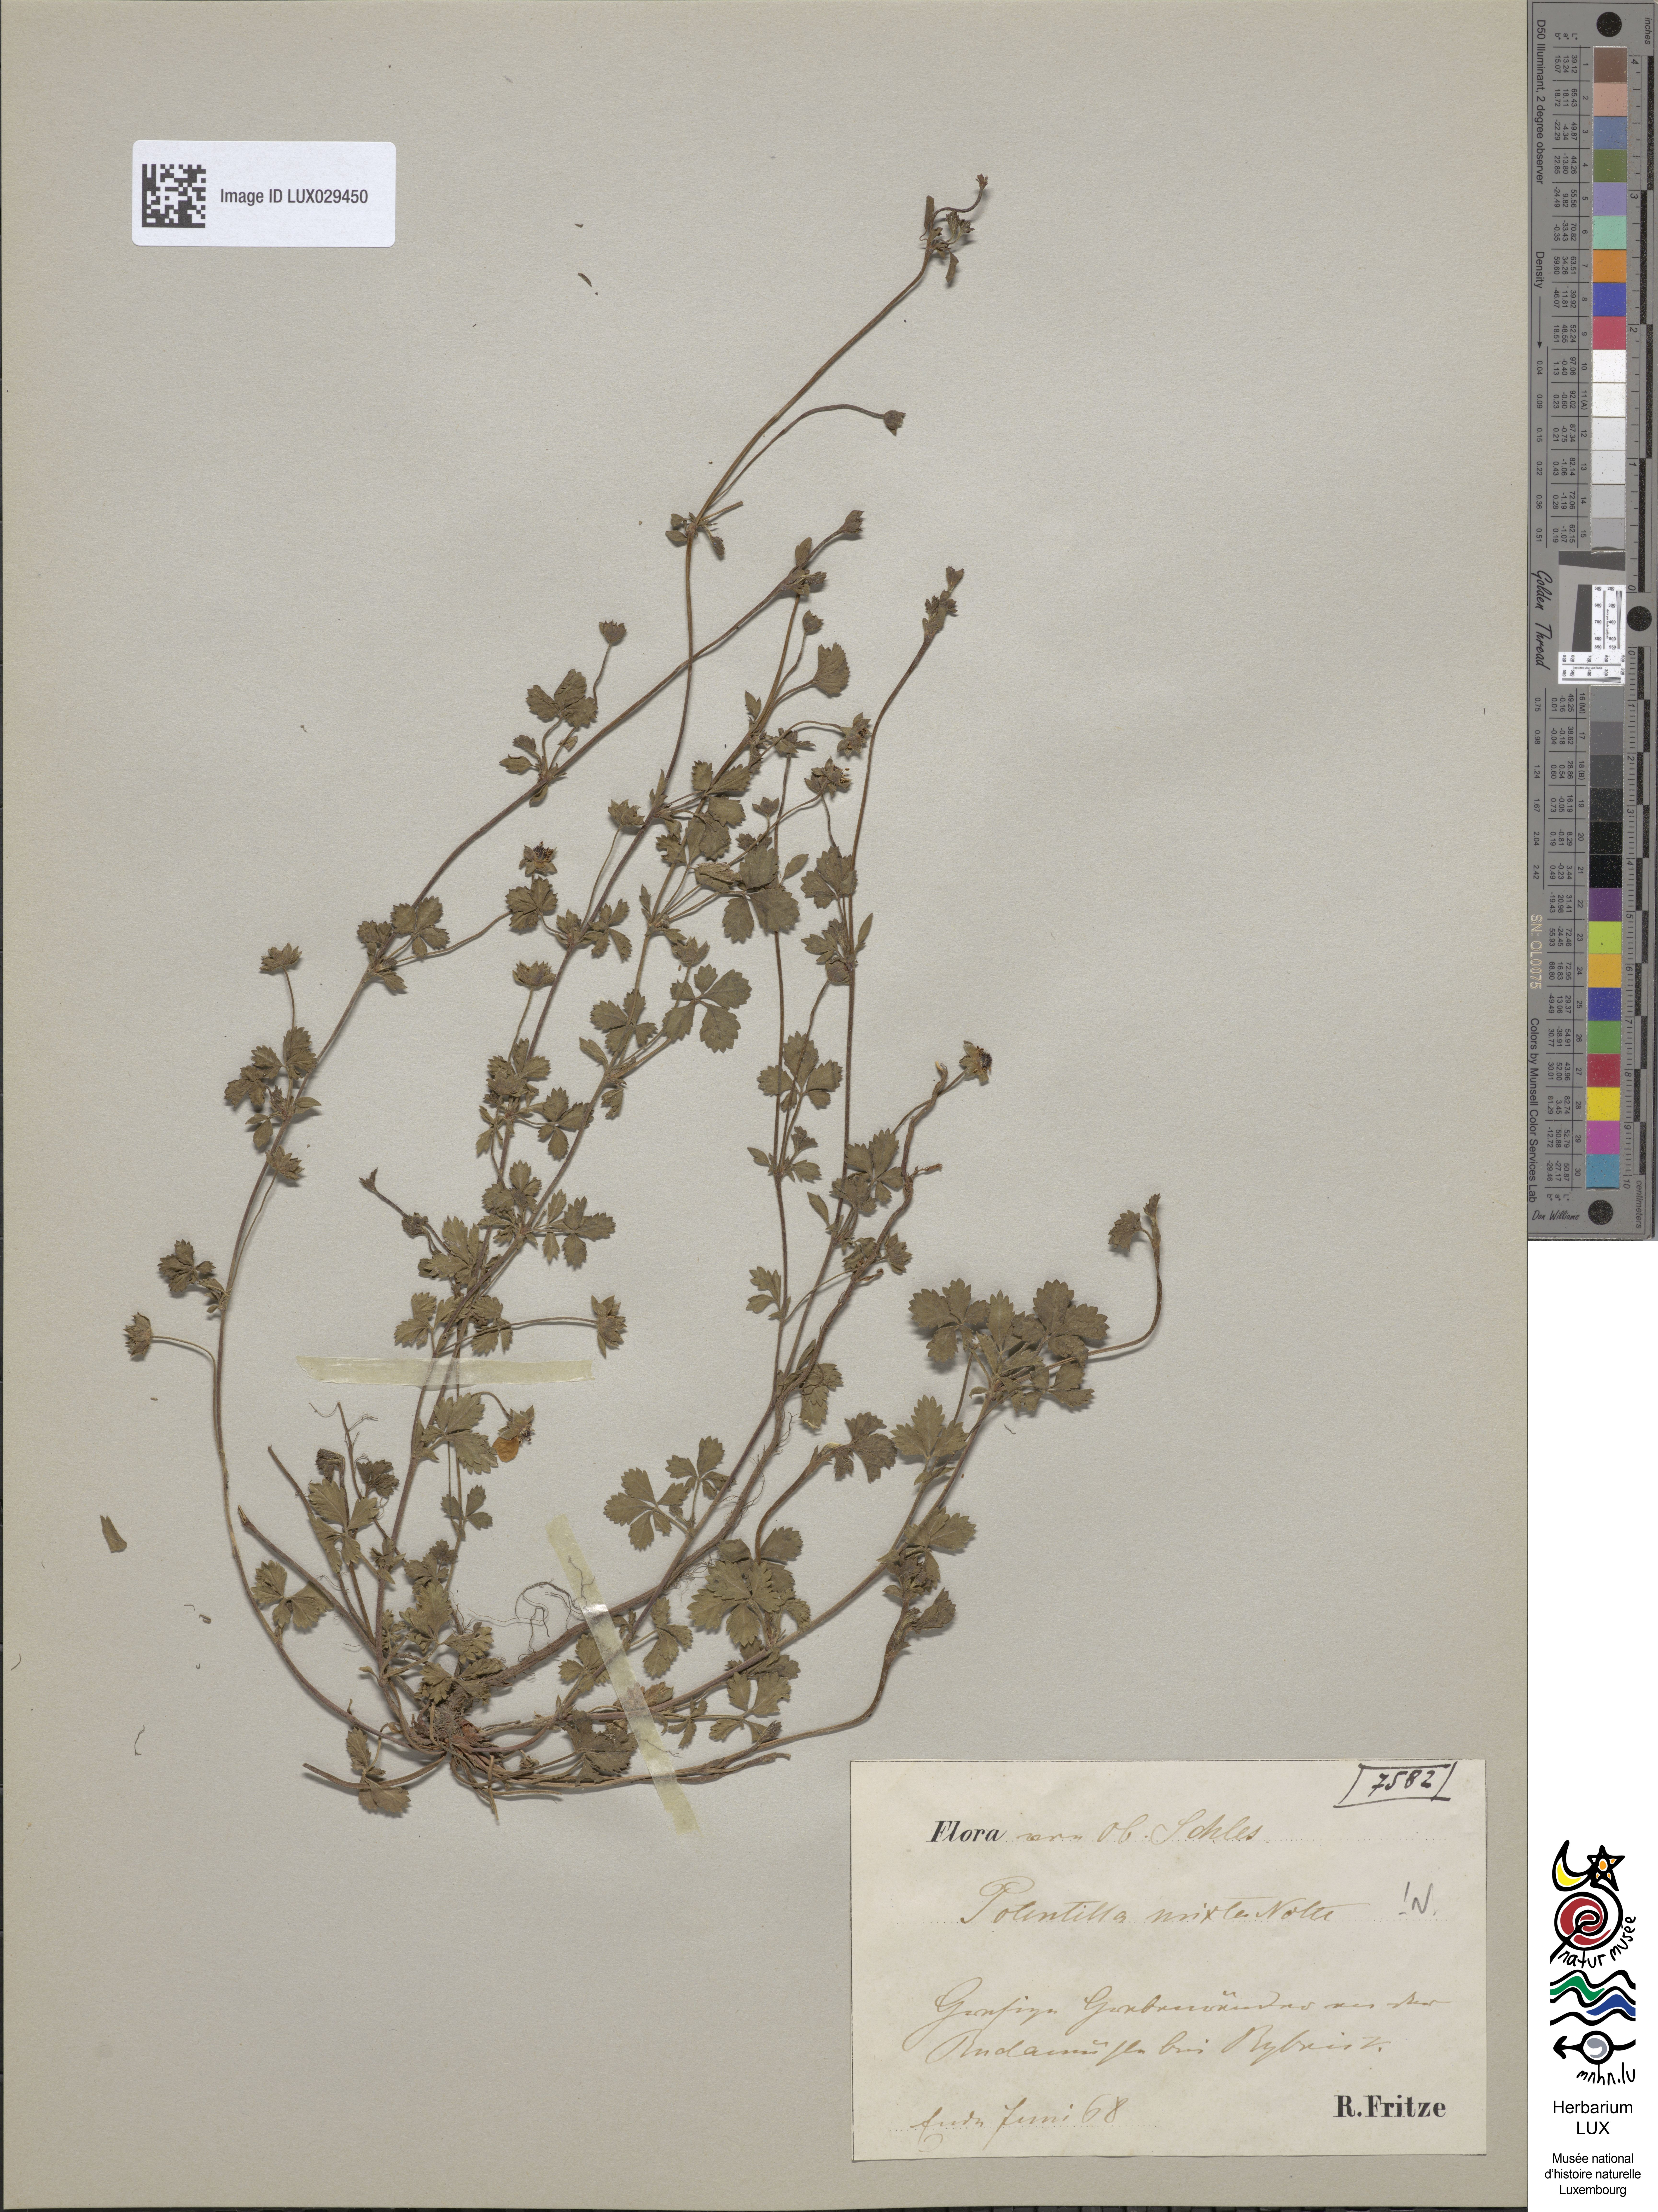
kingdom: Plantae
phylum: Tracheophyta
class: Magnoliopsida
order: Rosales
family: Rosaceae
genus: Potentilla
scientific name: Potentilla mixta
